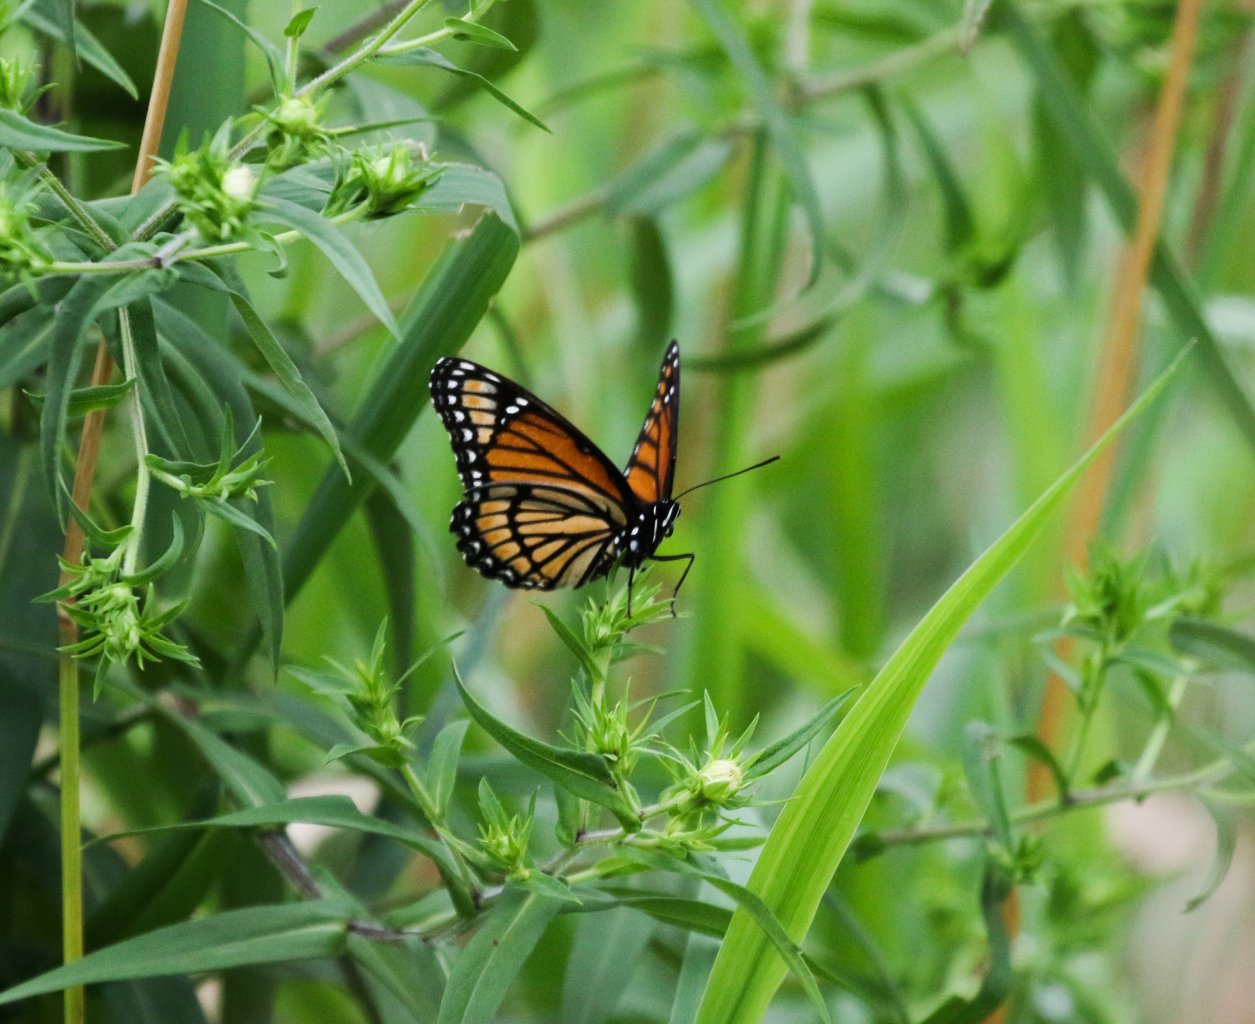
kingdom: Animalia
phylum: Arthropoda
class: Insecta
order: Lepidoptera
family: Nymphalidae
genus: Limenitis
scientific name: Limenitis archippus
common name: Viceroy
